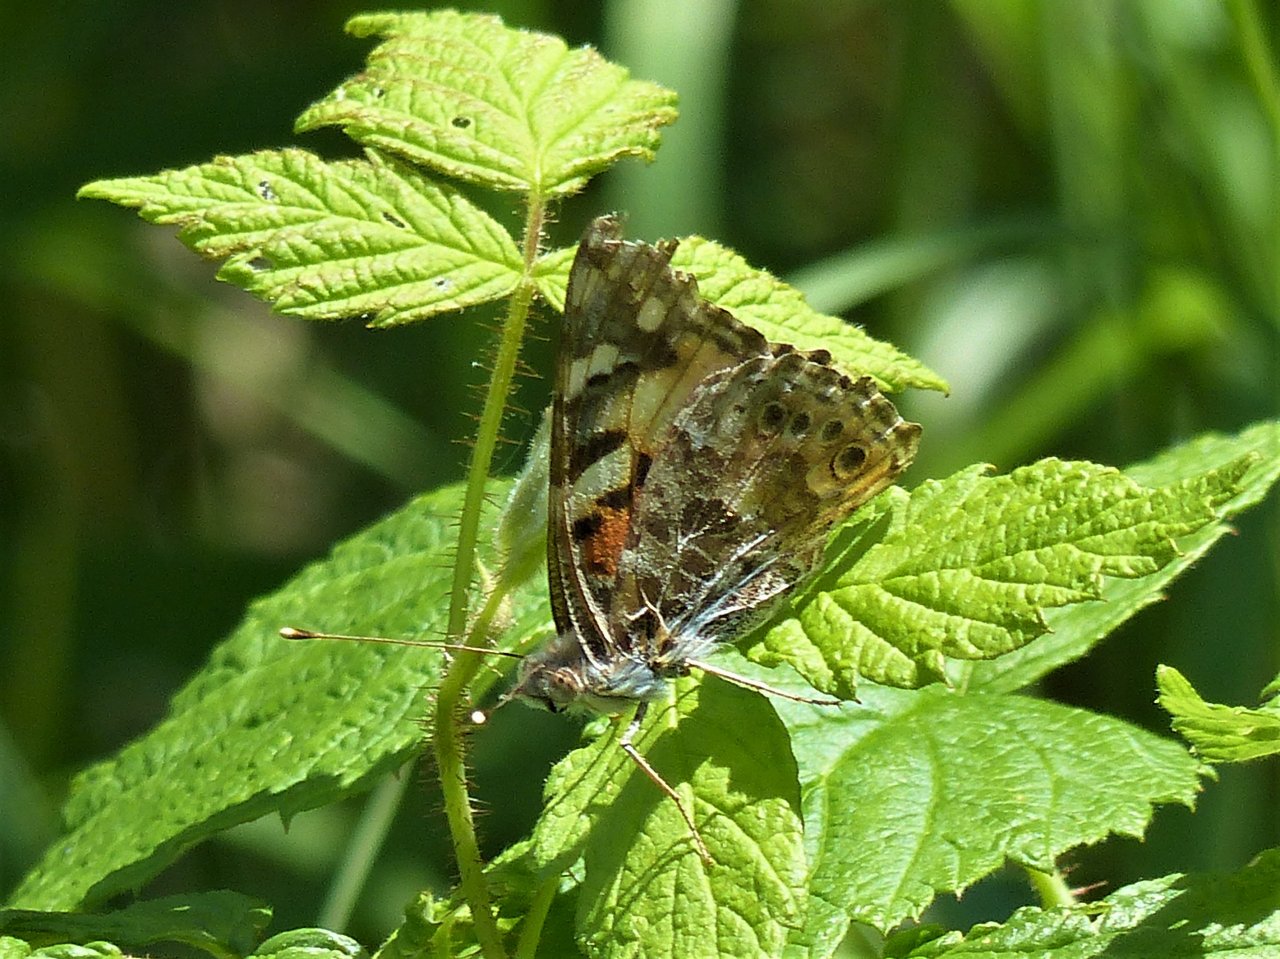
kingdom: Animalia
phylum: Arthropoda
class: Insecta
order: Lepidoptera
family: Nymphalidae
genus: Vanessa
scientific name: Vanessa cardui
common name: Painted Lady
